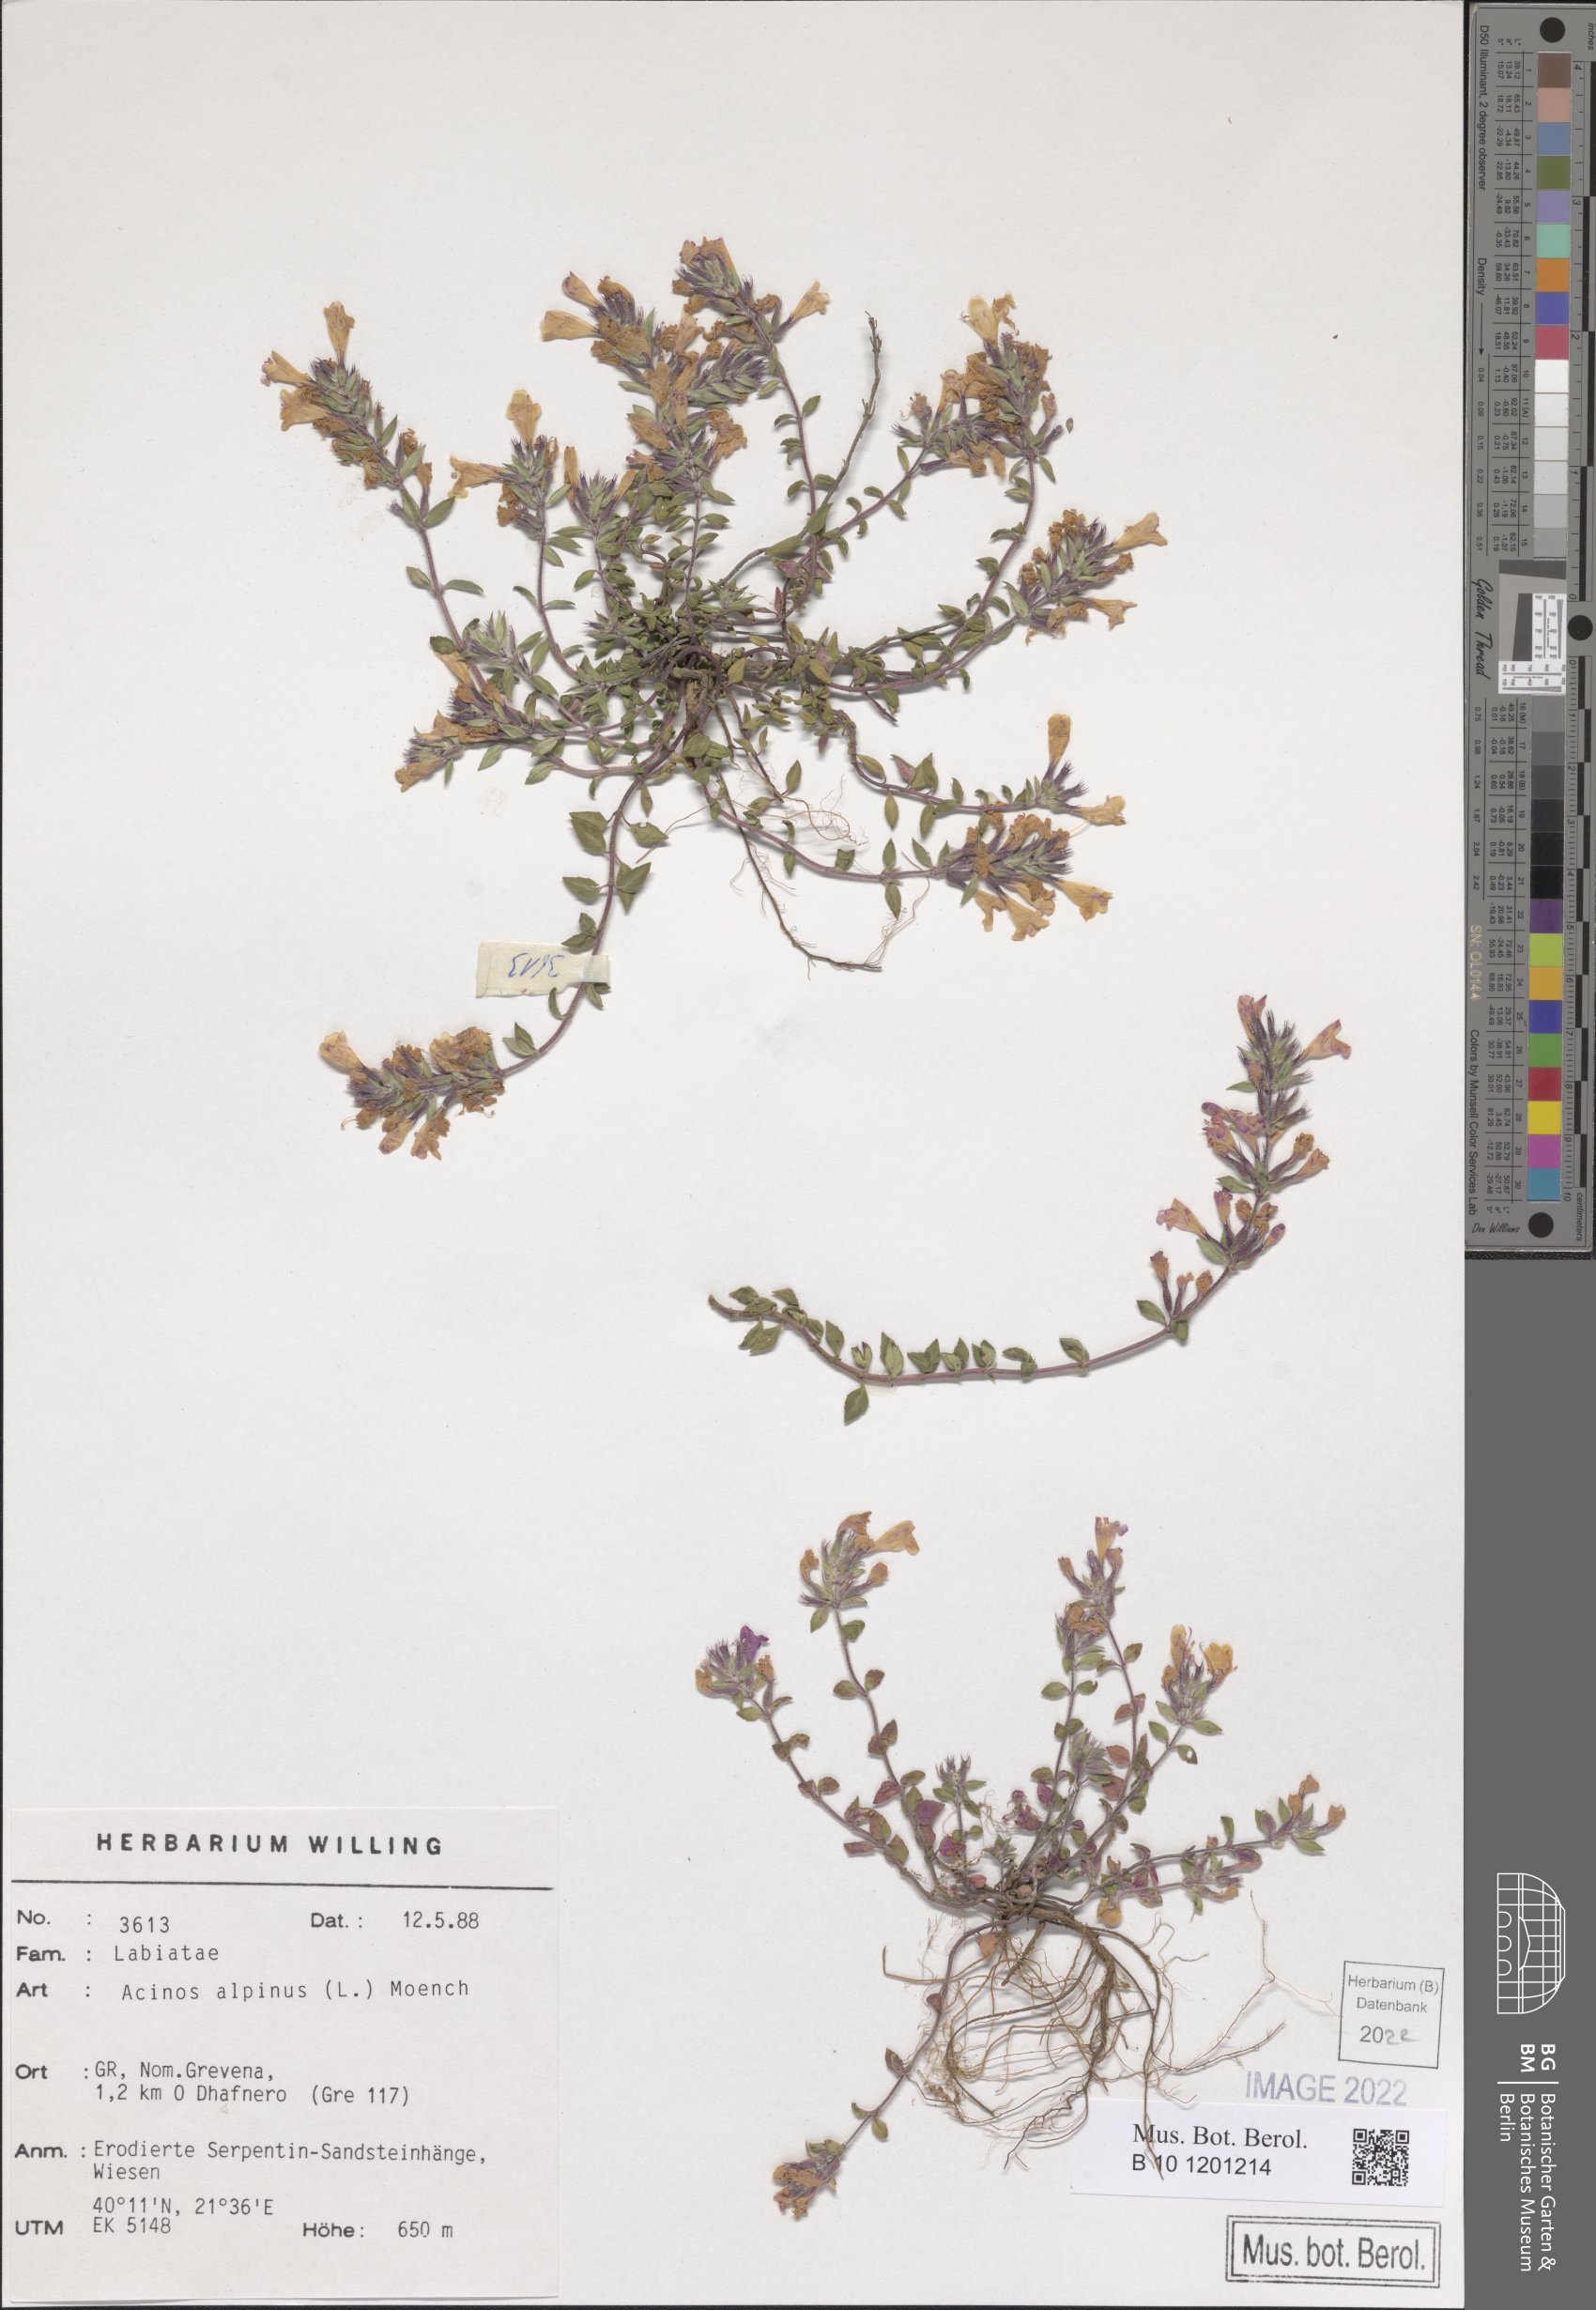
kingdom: Plantae
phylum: Tracheophyta
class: Magnoliopsida
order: Lamiales
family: Lamiaceae
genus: Clinopodium
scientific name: Clinopodium alpinum
